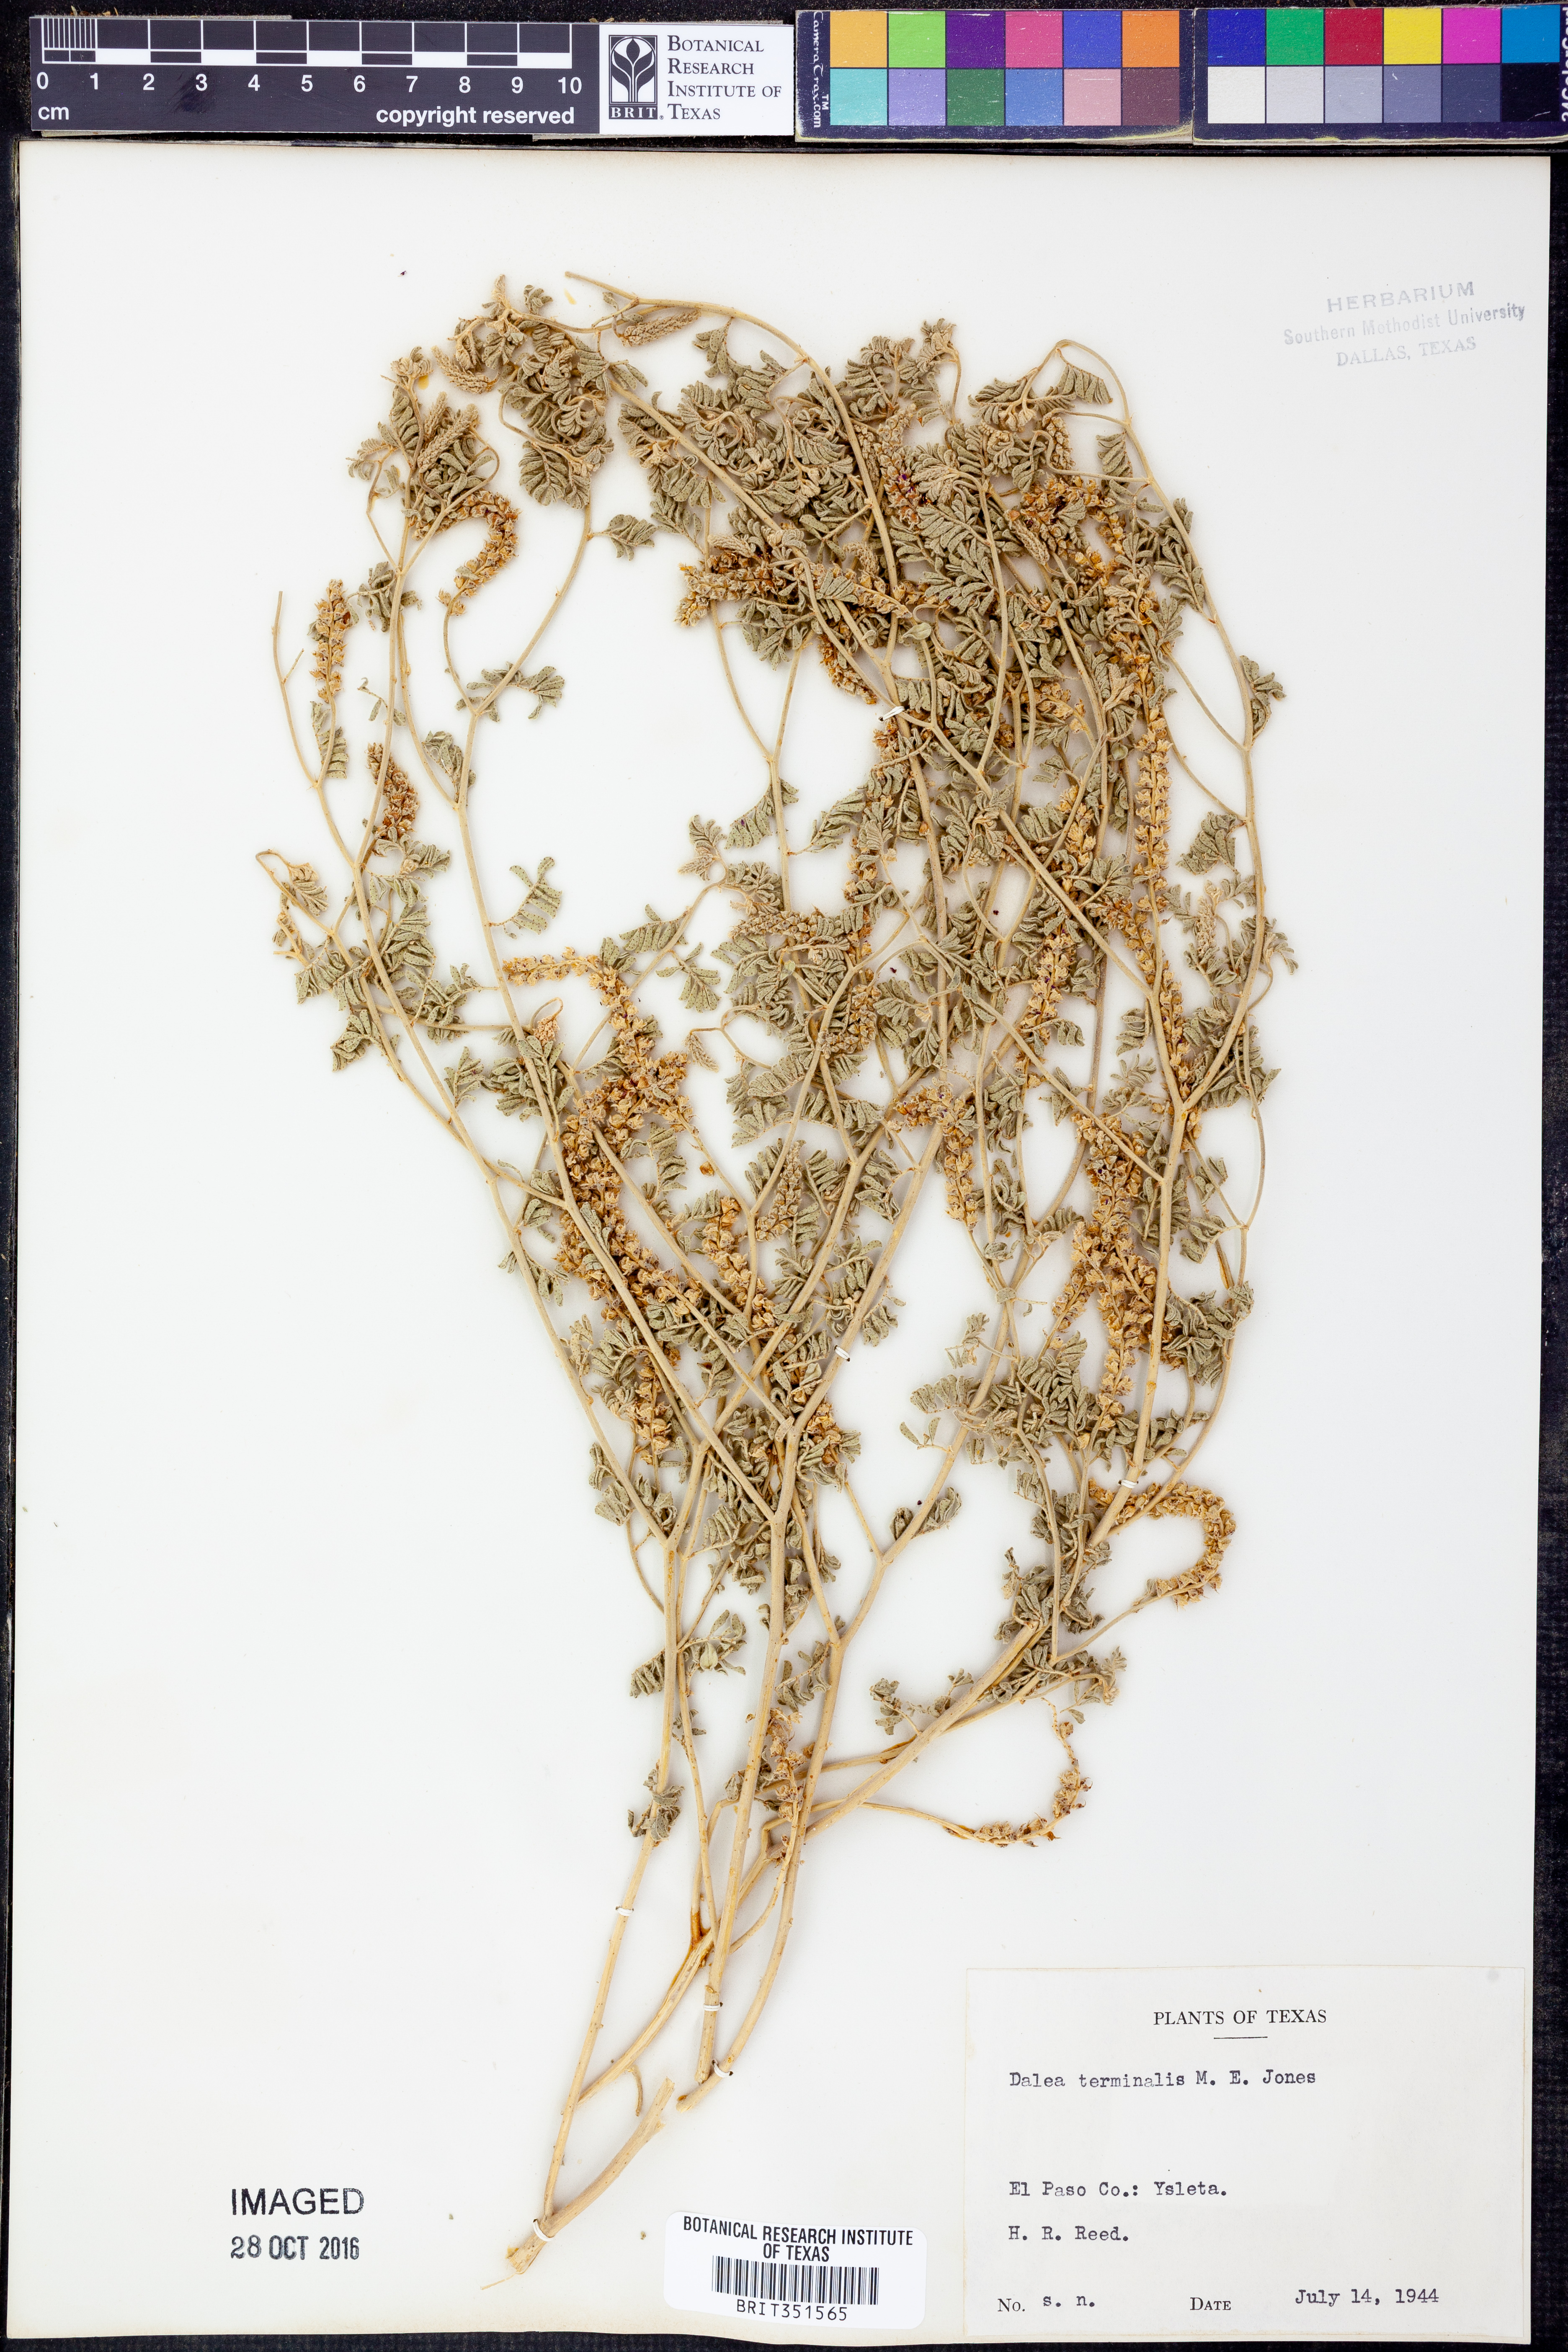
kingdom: Plantae
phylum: Tracheophyta
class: Magnoliopsida
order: Fabales
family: Fabaceae
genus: Dalea
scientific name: Dalea lanata
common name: Woolly dalea
